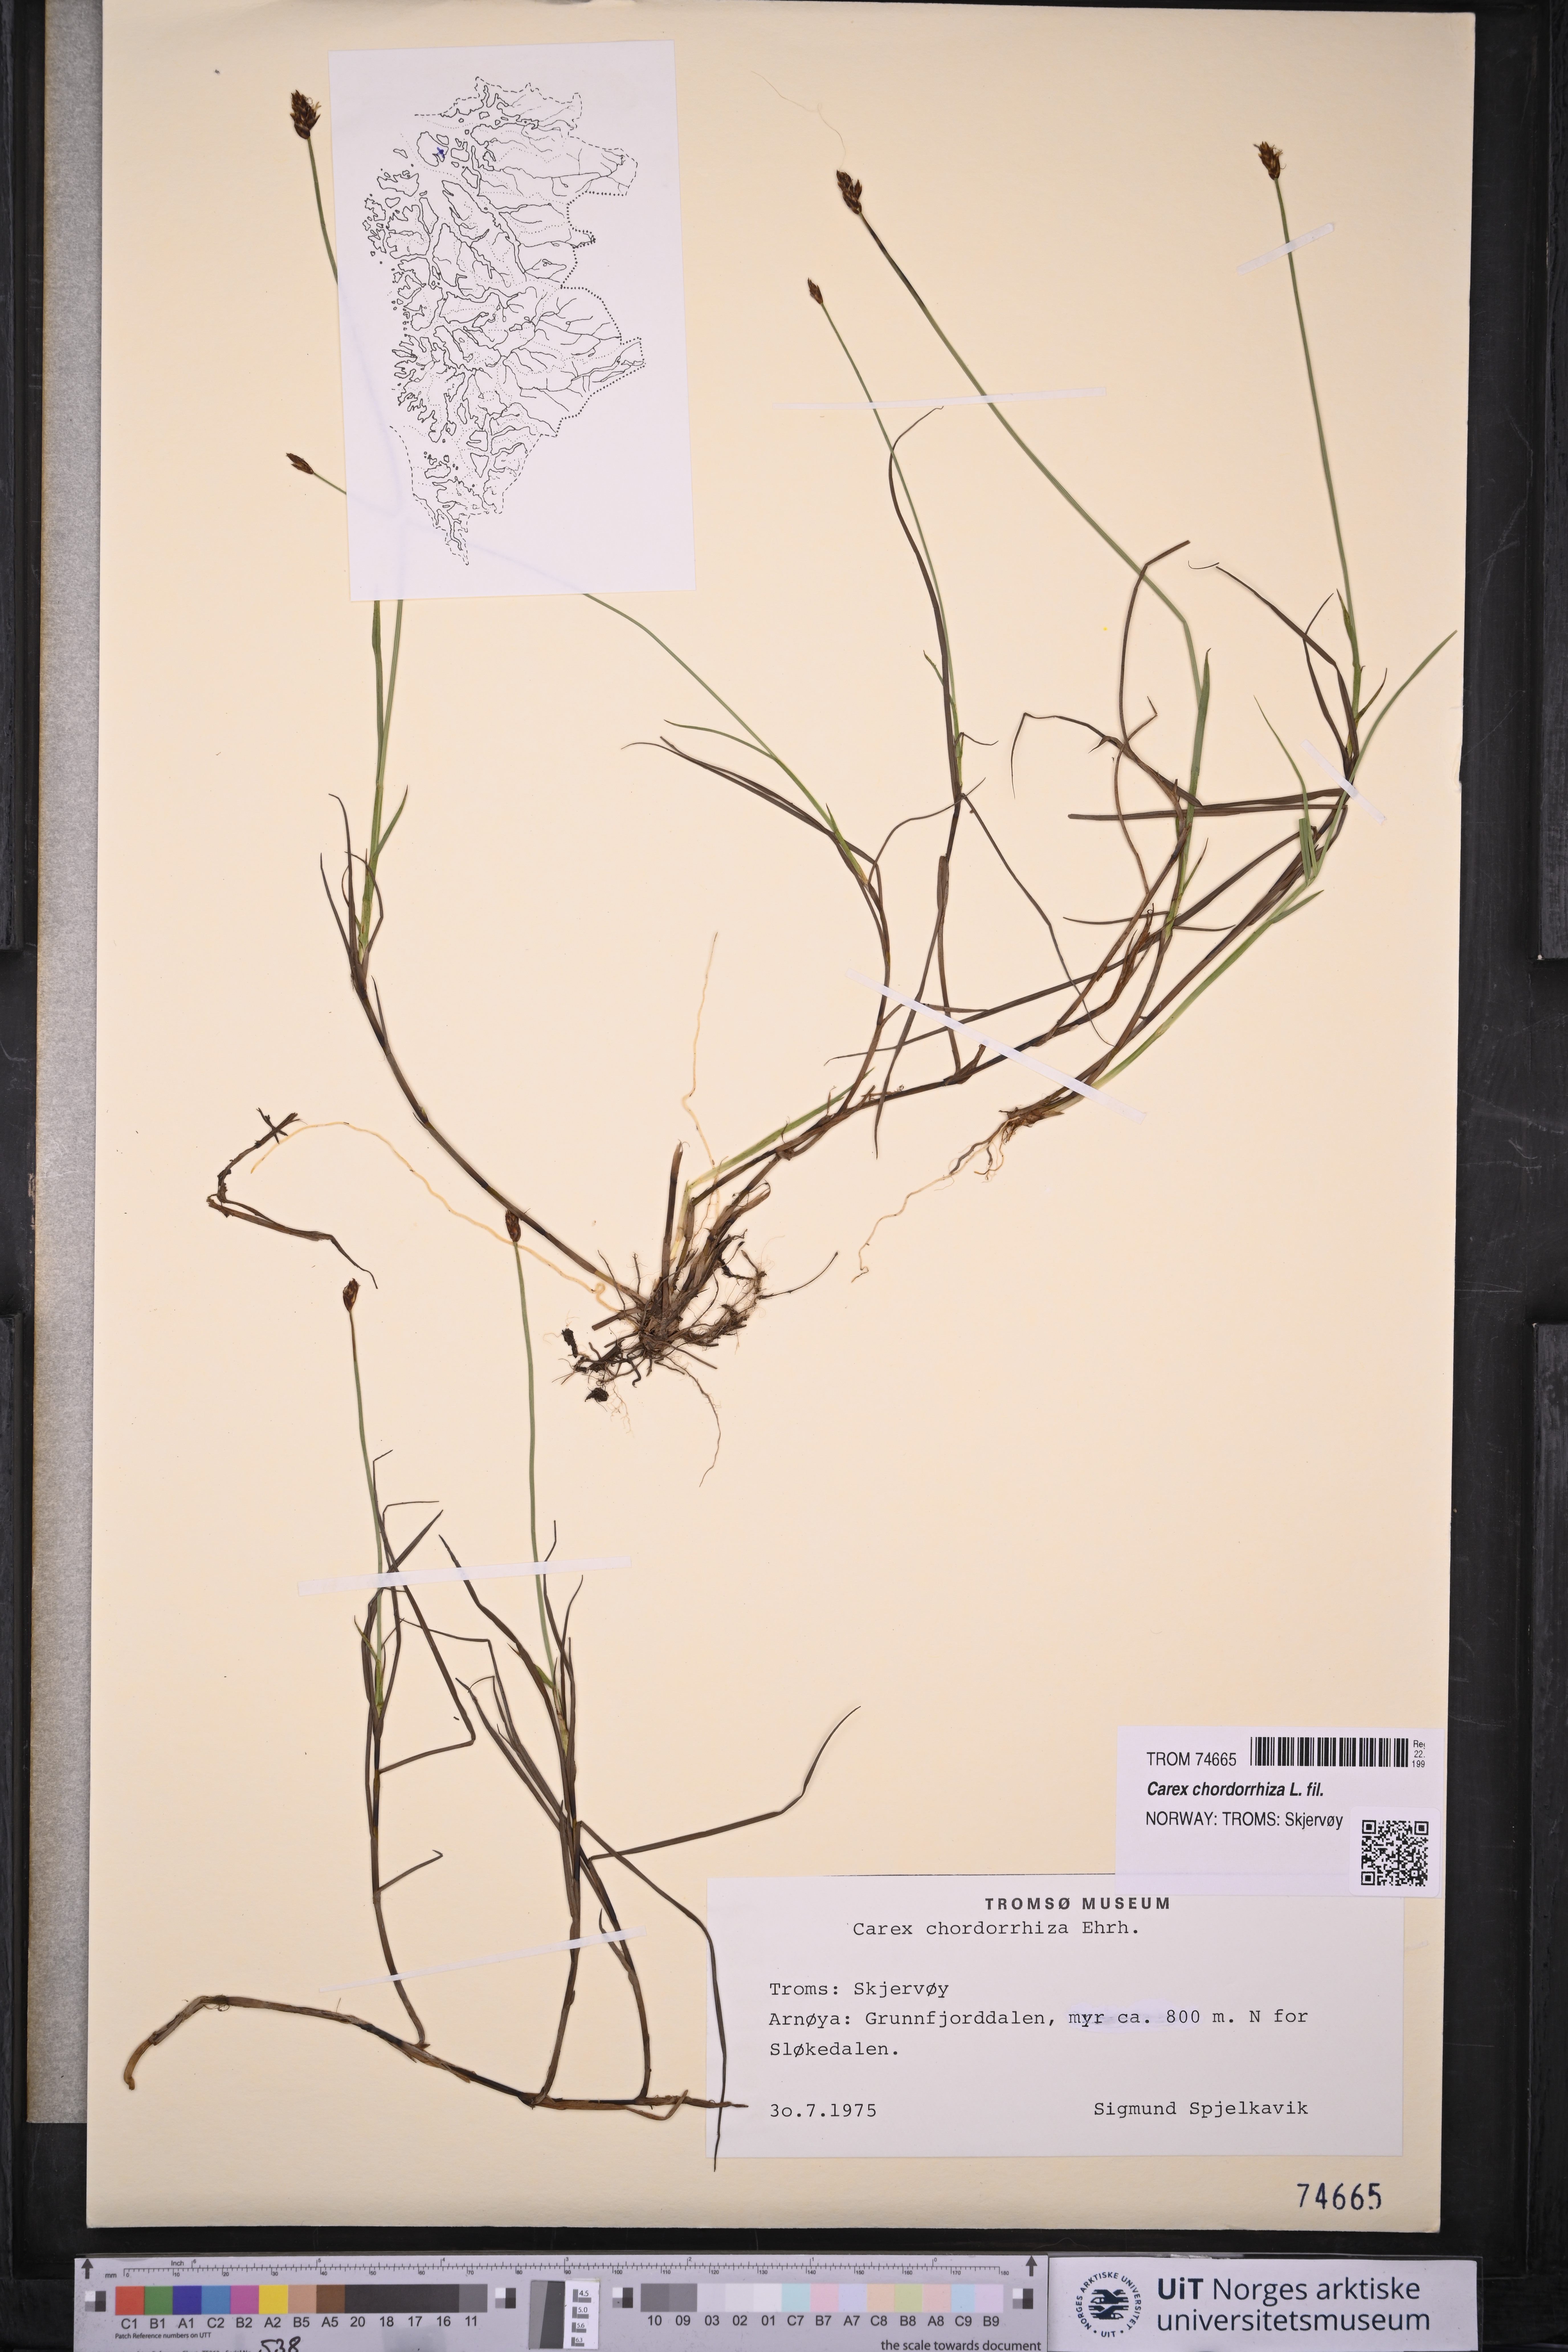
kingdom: Plantae
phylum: Tracheophyta
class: Liliopsida
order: Poales
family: Cyperaceae
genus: Carex
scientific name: Carex chordorrhiza
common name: String sedge
